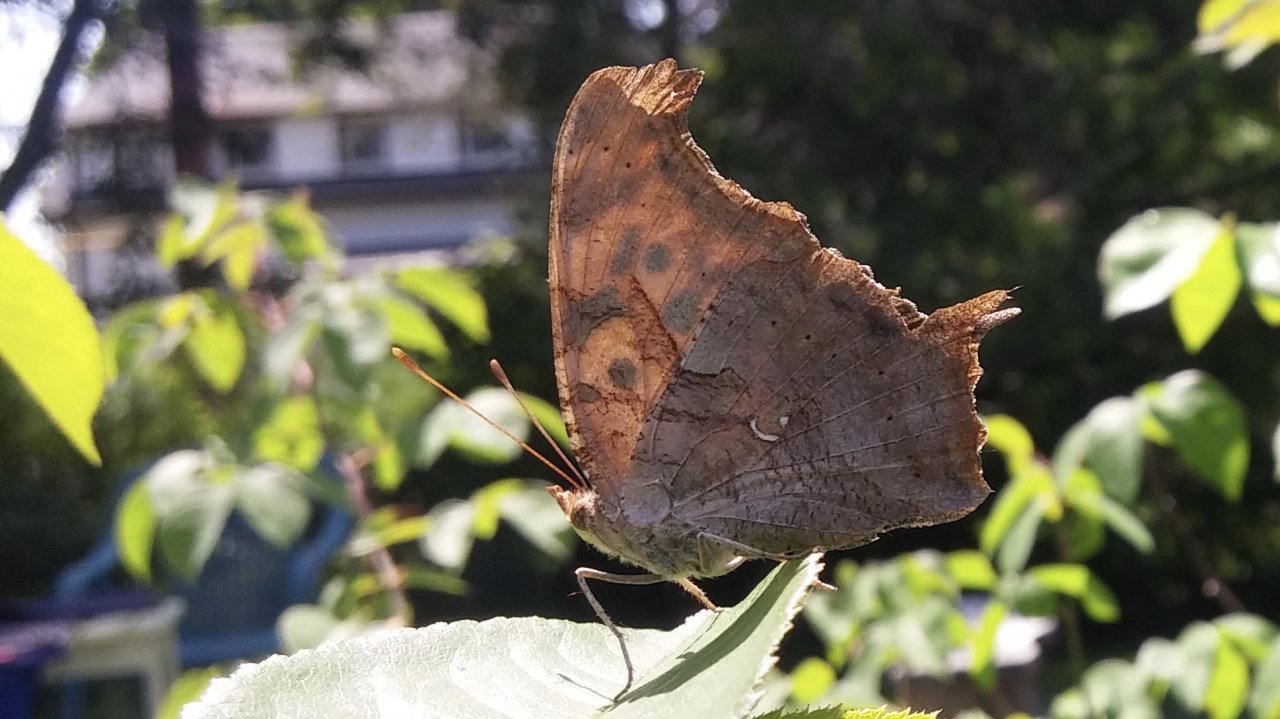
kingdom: Animalia
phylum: Arthropoda
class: Insecta
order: Lepidoptera
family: Nymphalidae
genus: Polygonia
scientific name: Polygonia interrogationis
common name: Question Mark
